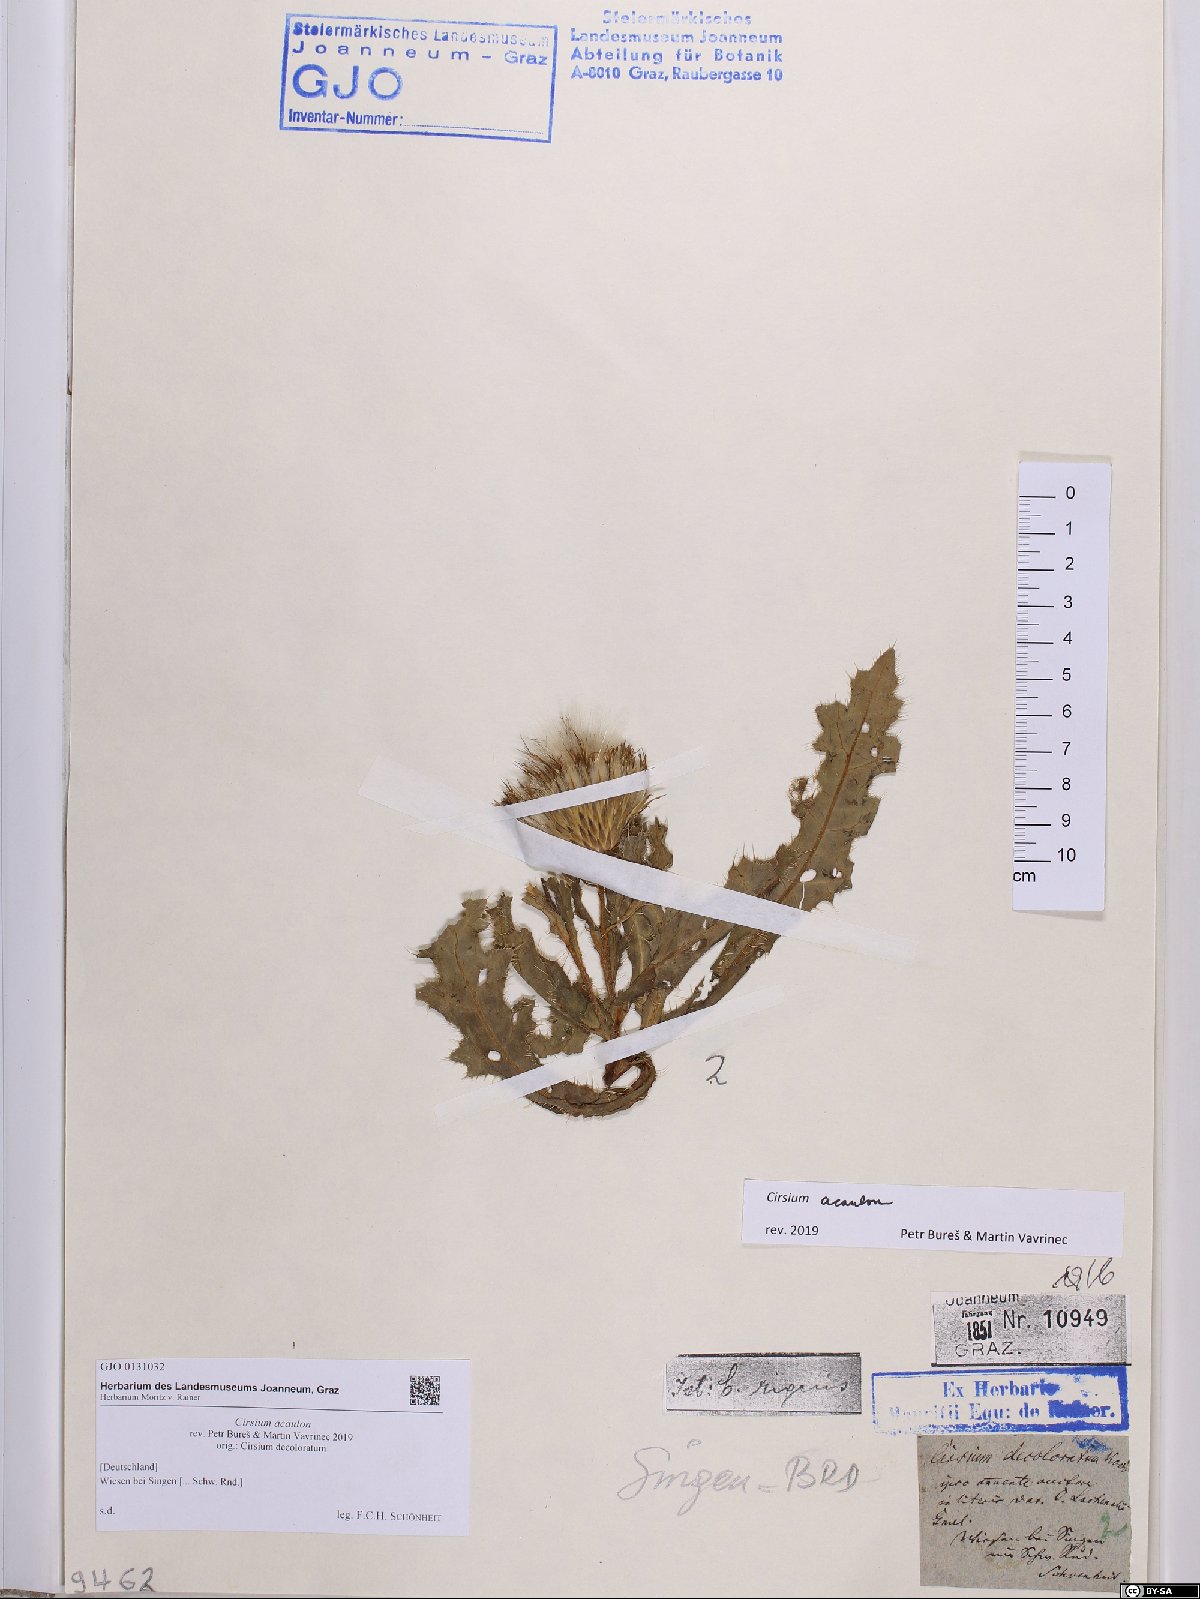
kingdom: Plantae
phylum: Tracheophyta
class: Magnoliopsida
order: Asterales
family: Asteraceae
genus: Cirsium
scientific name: Cirsium acaulon
